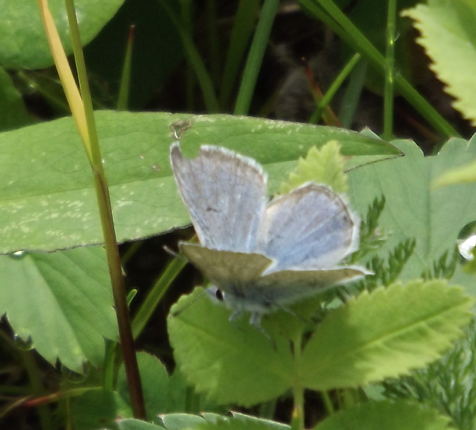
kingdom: Animalia
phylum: Arthropoda
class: Insecta
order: Lepidoptera
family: Lycaenidae
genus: Glaucopsyche
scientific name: Glaucopsyche lygdamus
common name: Silvery Blue
